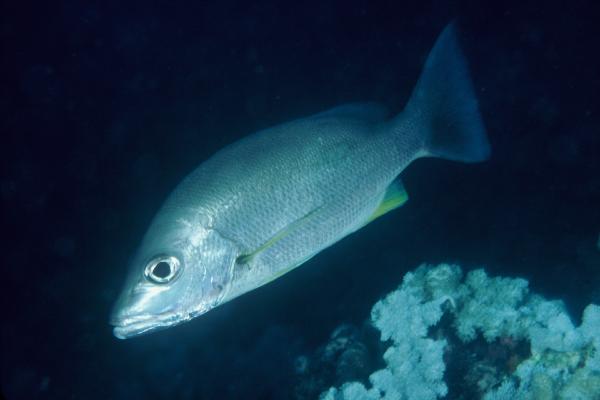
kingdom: Animalia
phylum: Chordata
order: Perciformes
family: Lutjanidae
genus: Lutjanus
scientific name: Lutjanus russellii
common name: Russell's snapper
